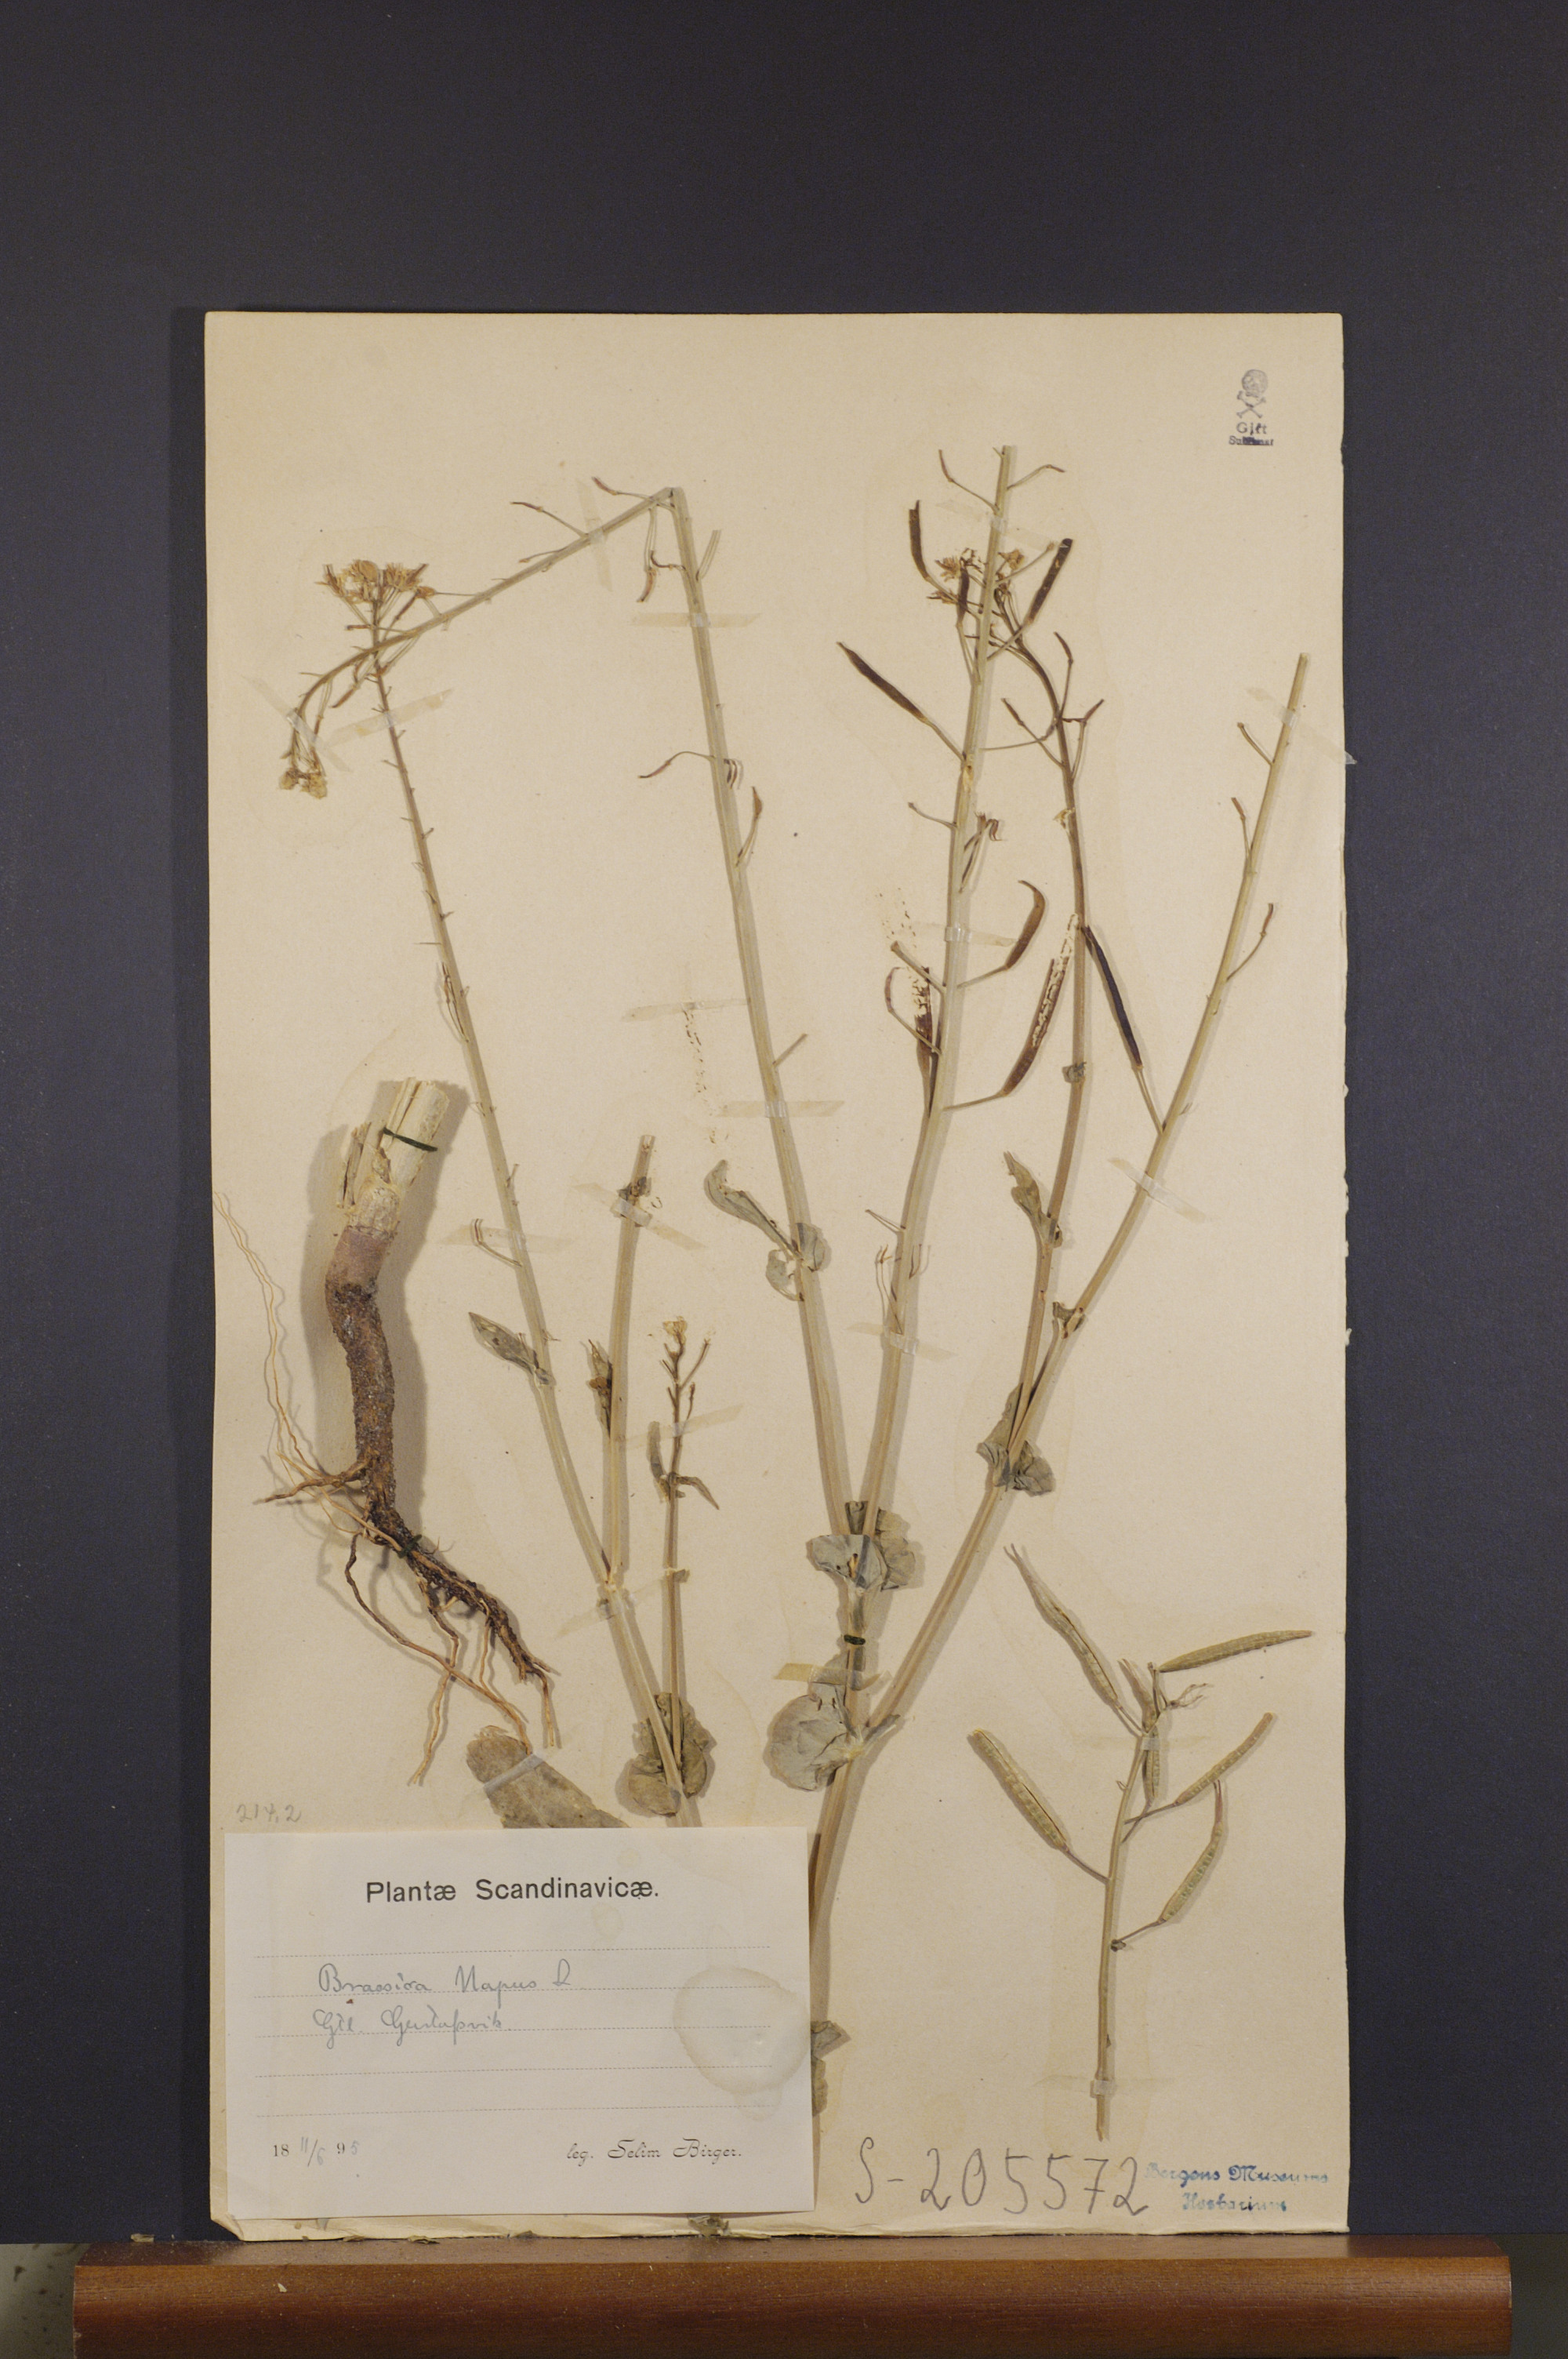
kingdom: Plantae
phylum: Tracheophyta
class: Magnoliopsida
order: Brassicales
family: Brassicaceae
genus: Brassica
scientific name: Brassica napus
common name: Rape
